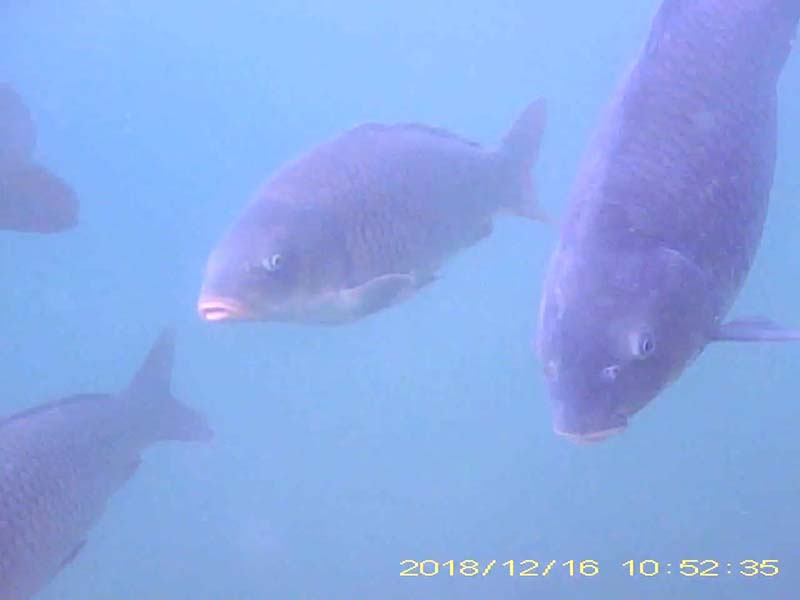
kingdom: Animalia
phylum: Chordata
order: Cypriniformes
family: Cyprinidae
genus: Cyprinus
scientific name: Cyprinus carpio
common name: コイ
